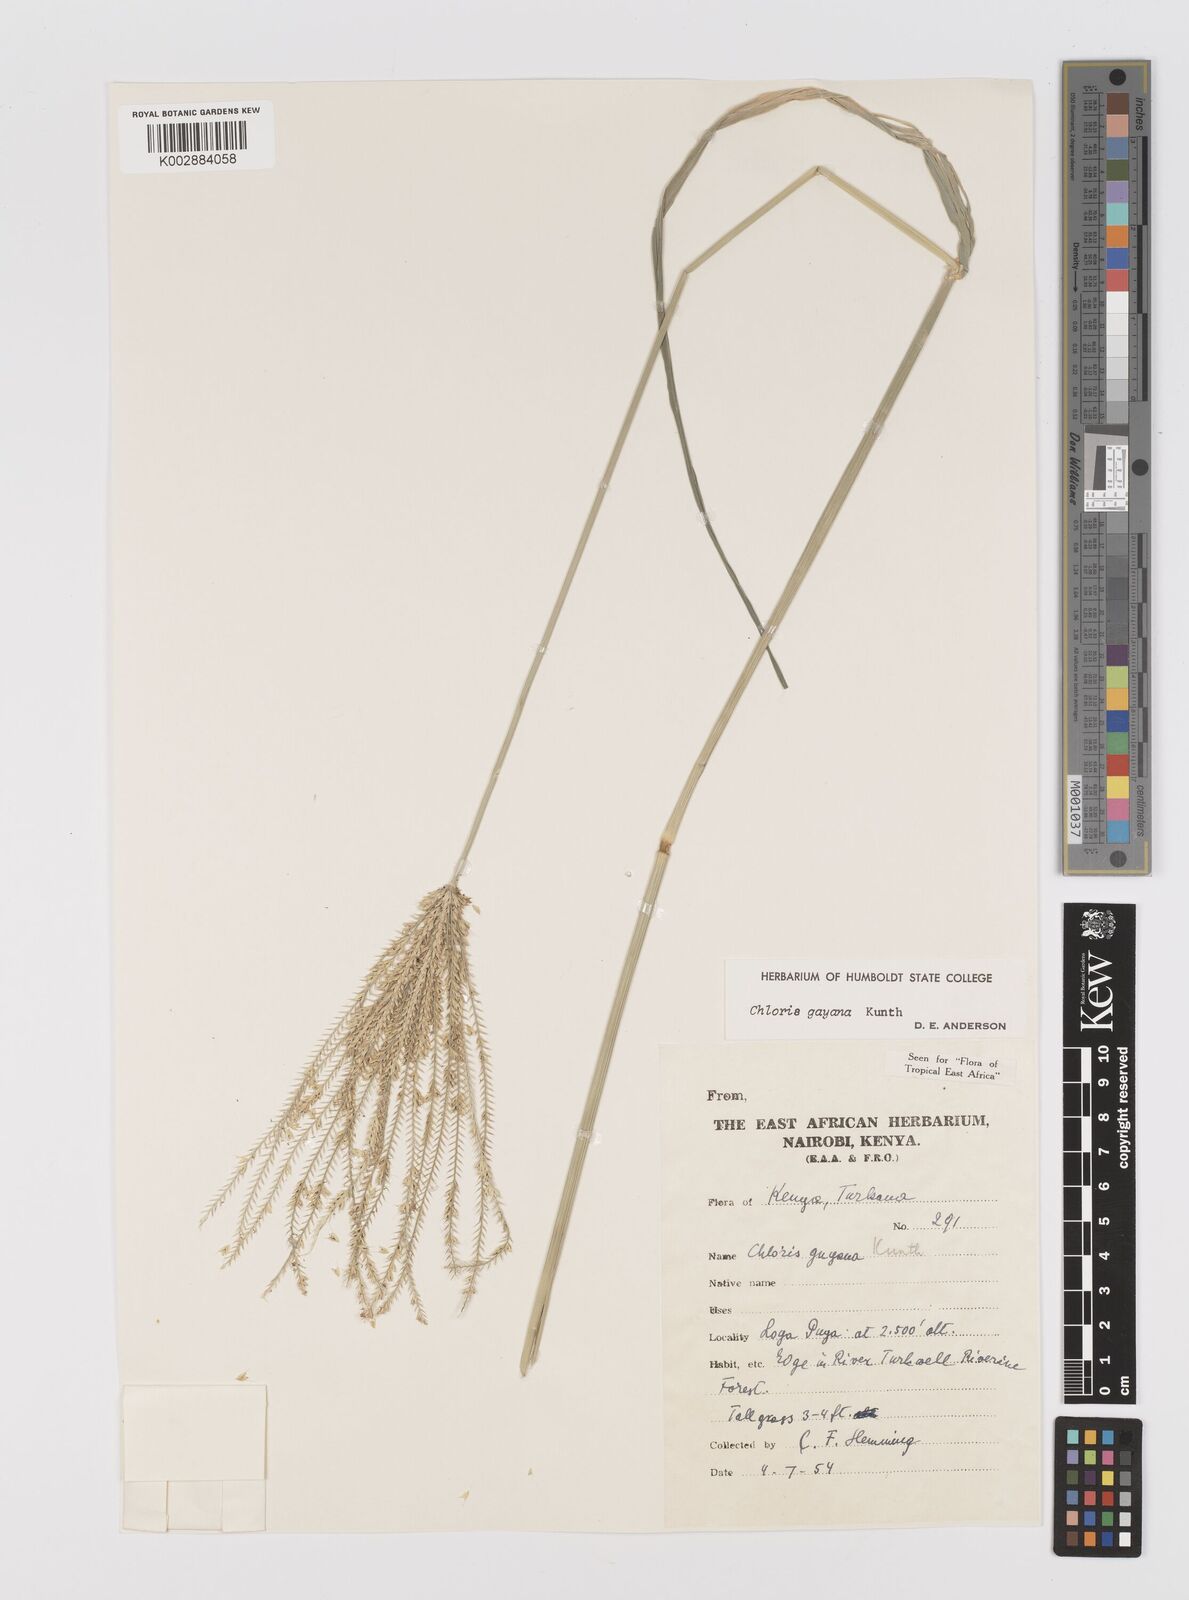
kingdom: Plantae
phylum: Tracheophyta
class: Liliopsida
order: Poales
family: Poaceae
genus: Chloris
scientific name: Chloris gayana
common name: Rhodes grass
